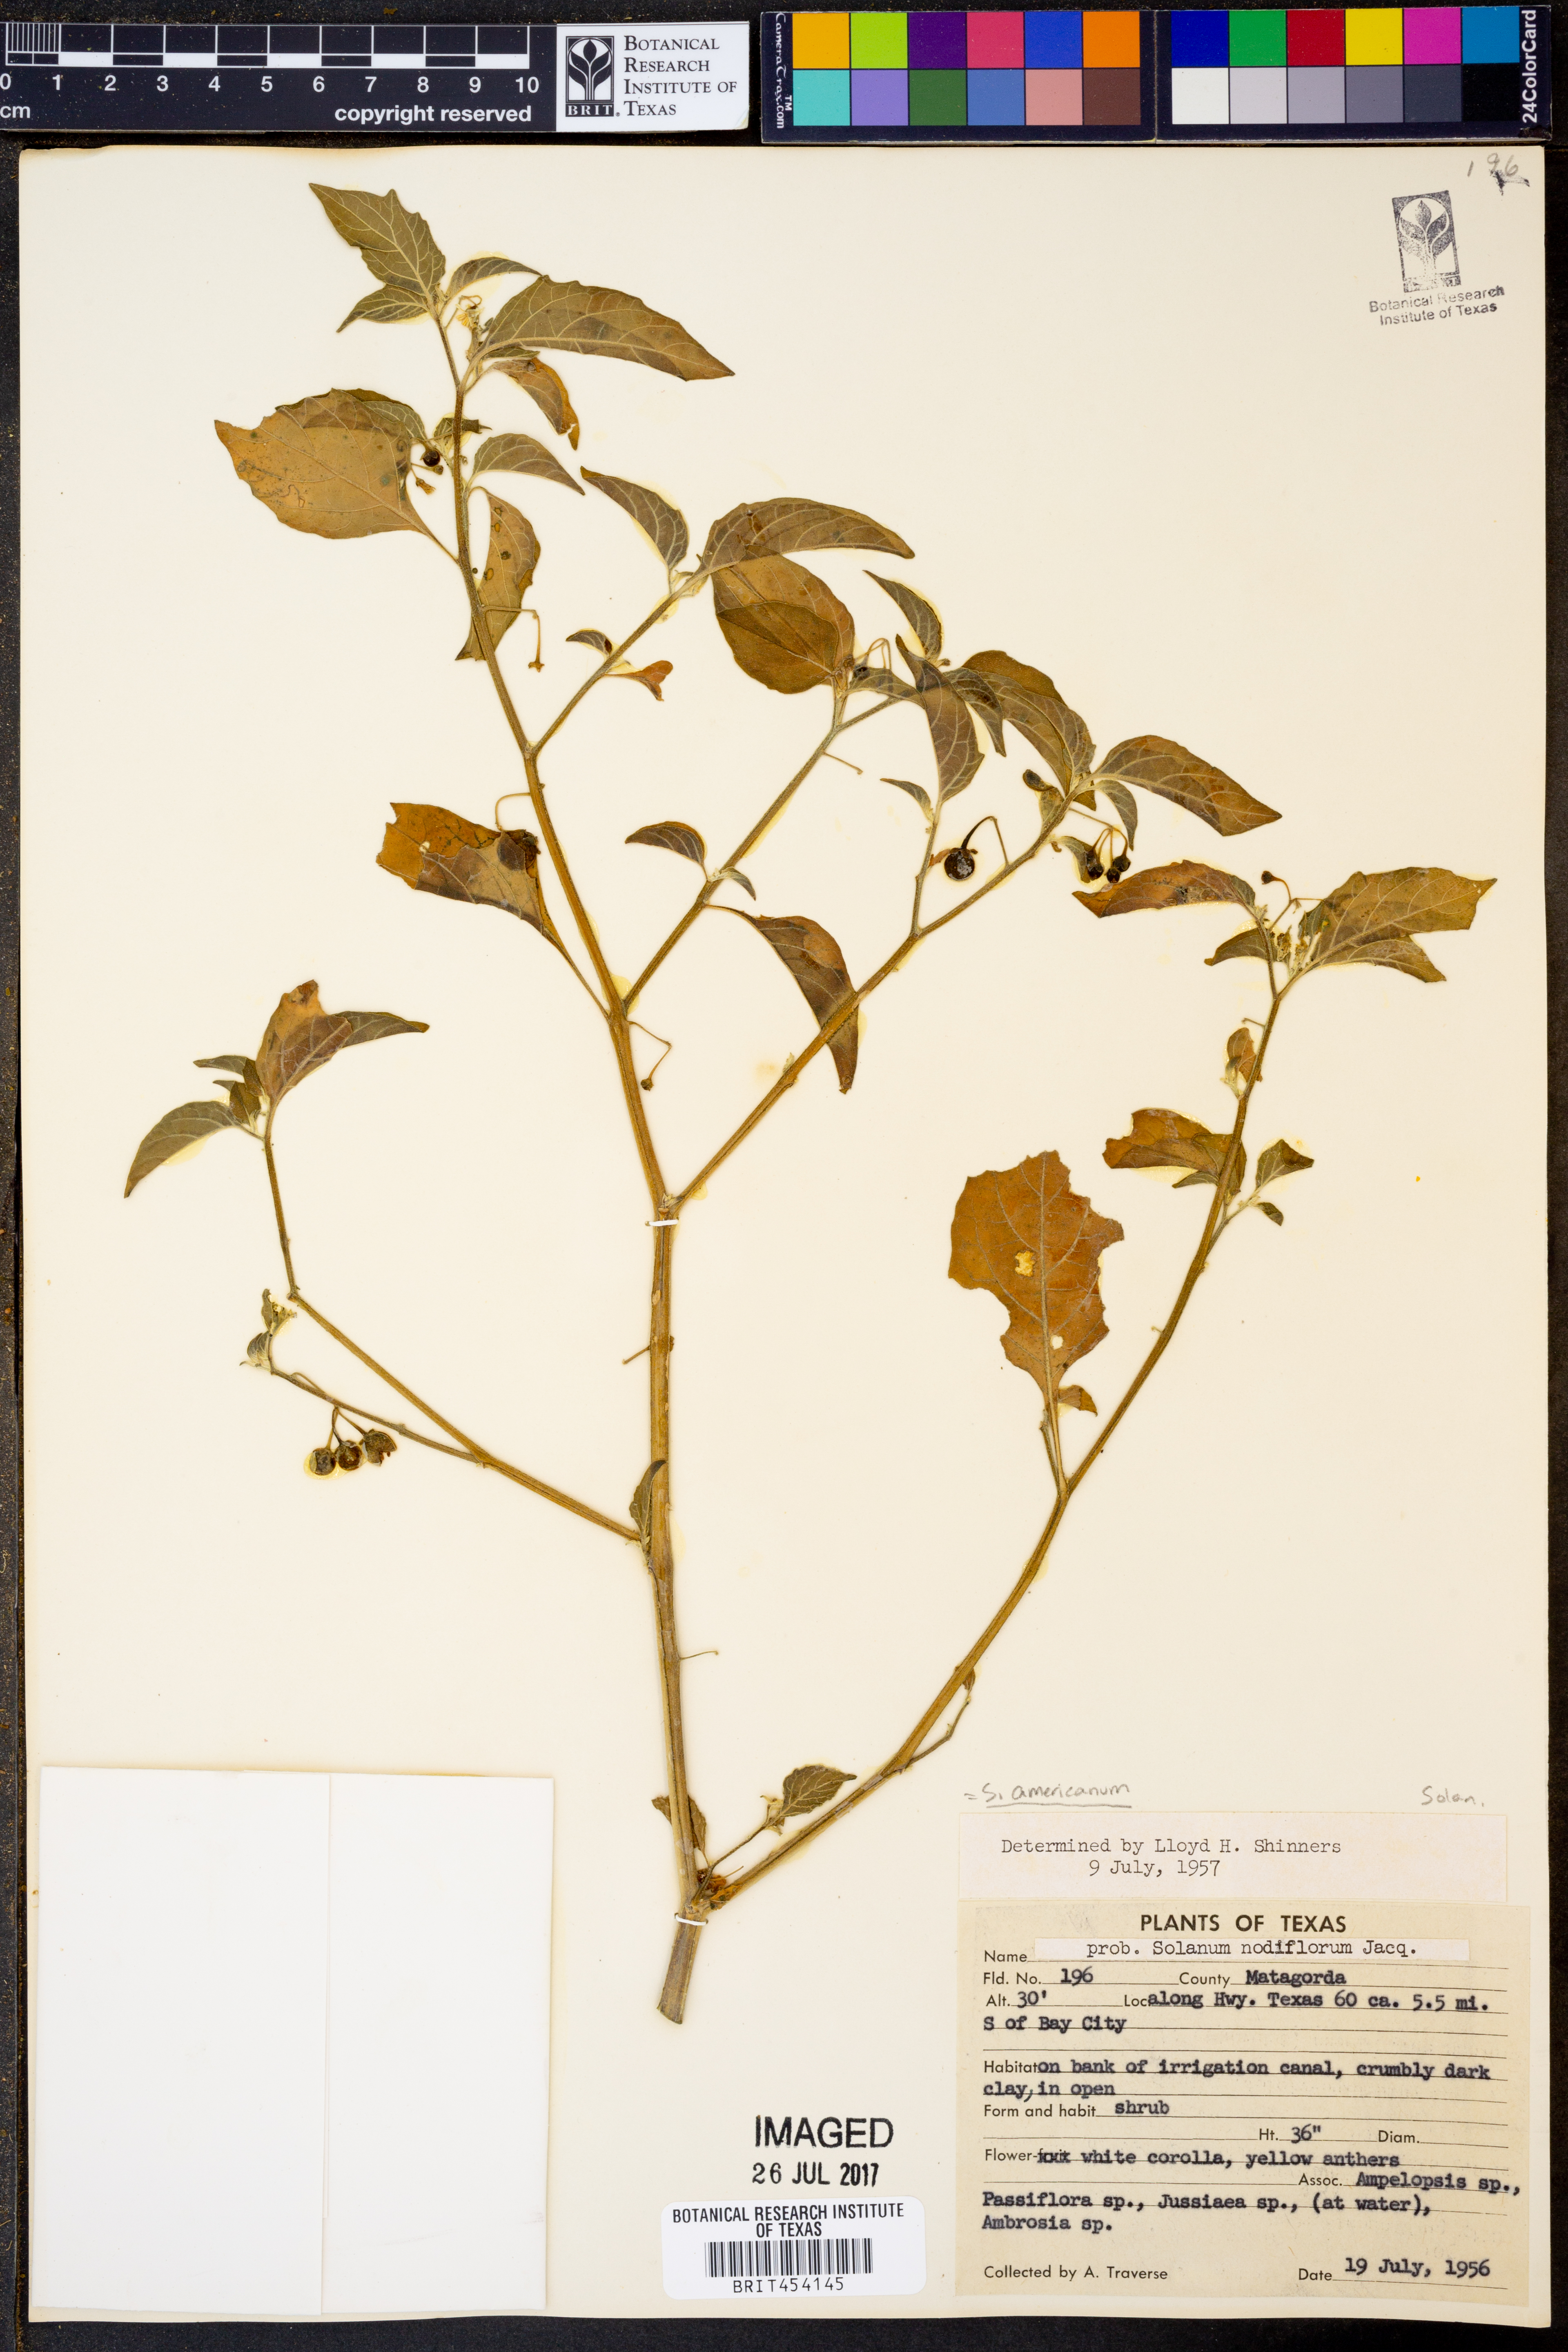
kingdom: Plantae
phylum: Tracheophyta
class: Magnoliopsida
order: Solanales
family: Solanaceae
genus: Solanum
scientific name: Solanum americanum
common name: American black nightshade
